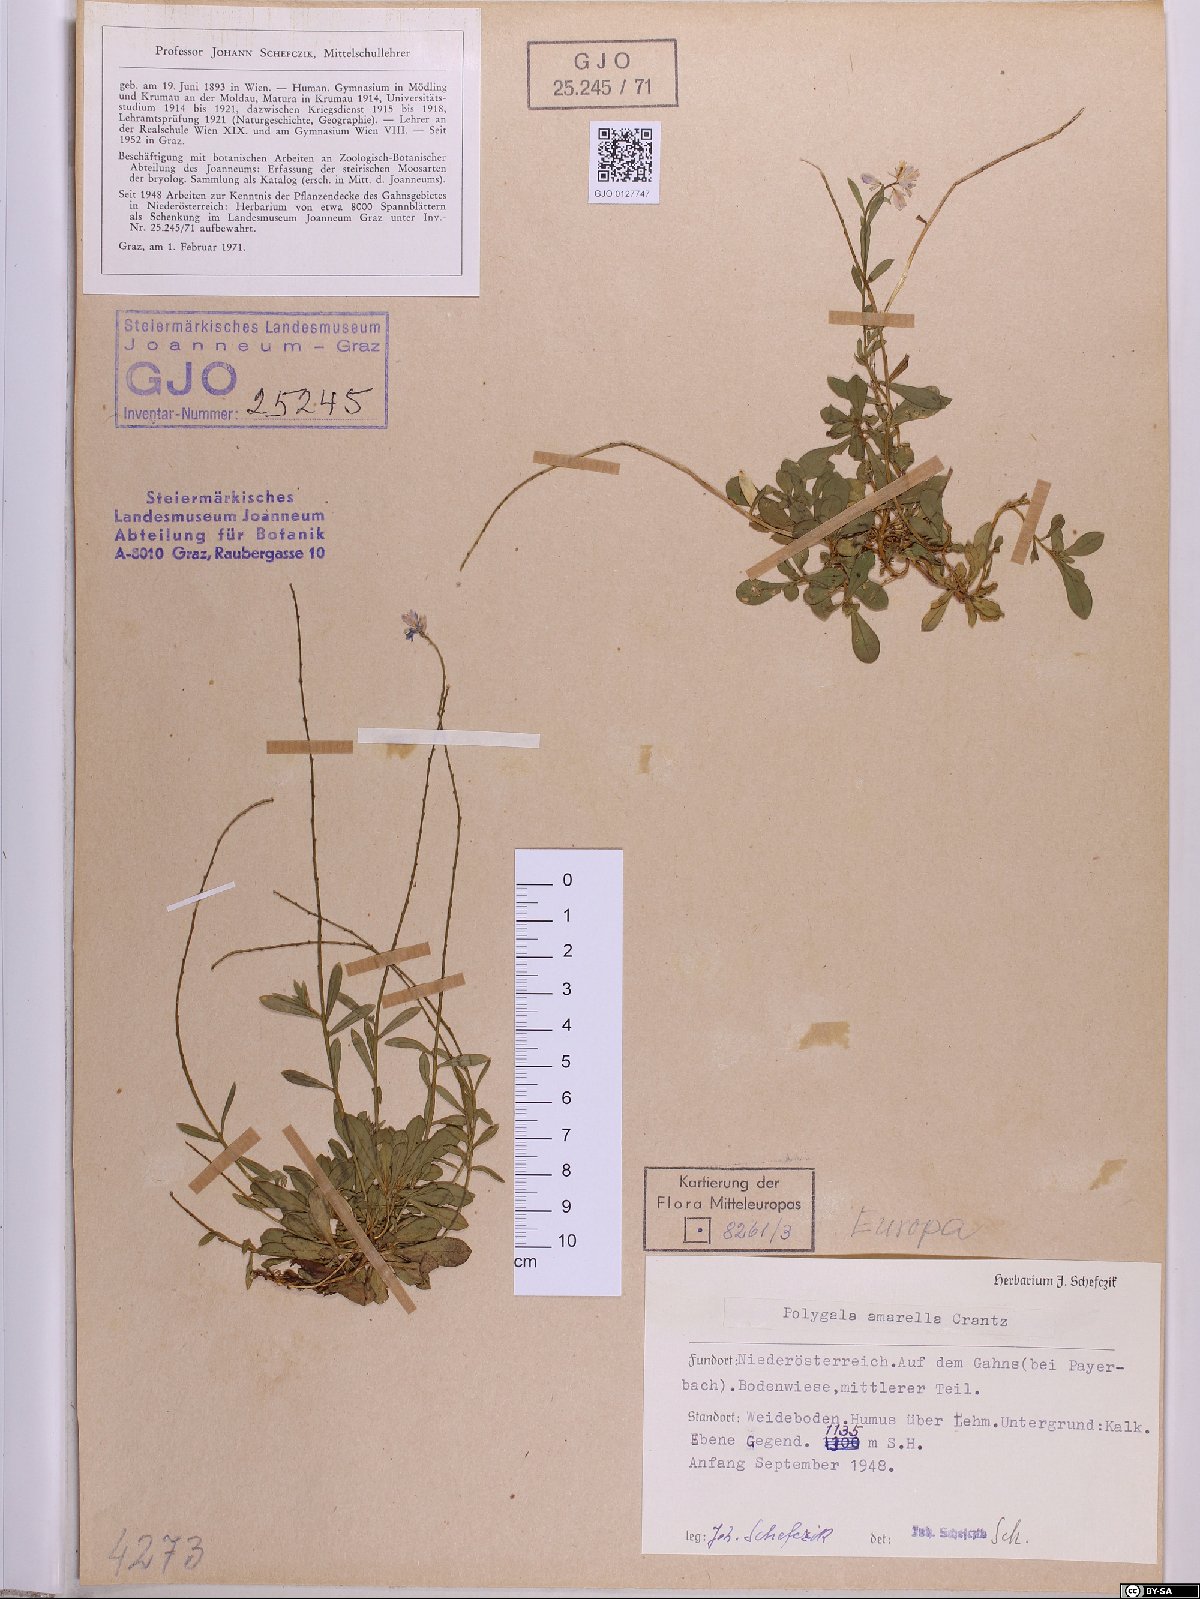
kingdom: Plantae
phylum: Tracheophyta
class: Magnoliopsida
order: Fabales
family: Polygalaceae
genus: Polygala
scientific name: Polygala amarella
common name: Dwarf milkwort
